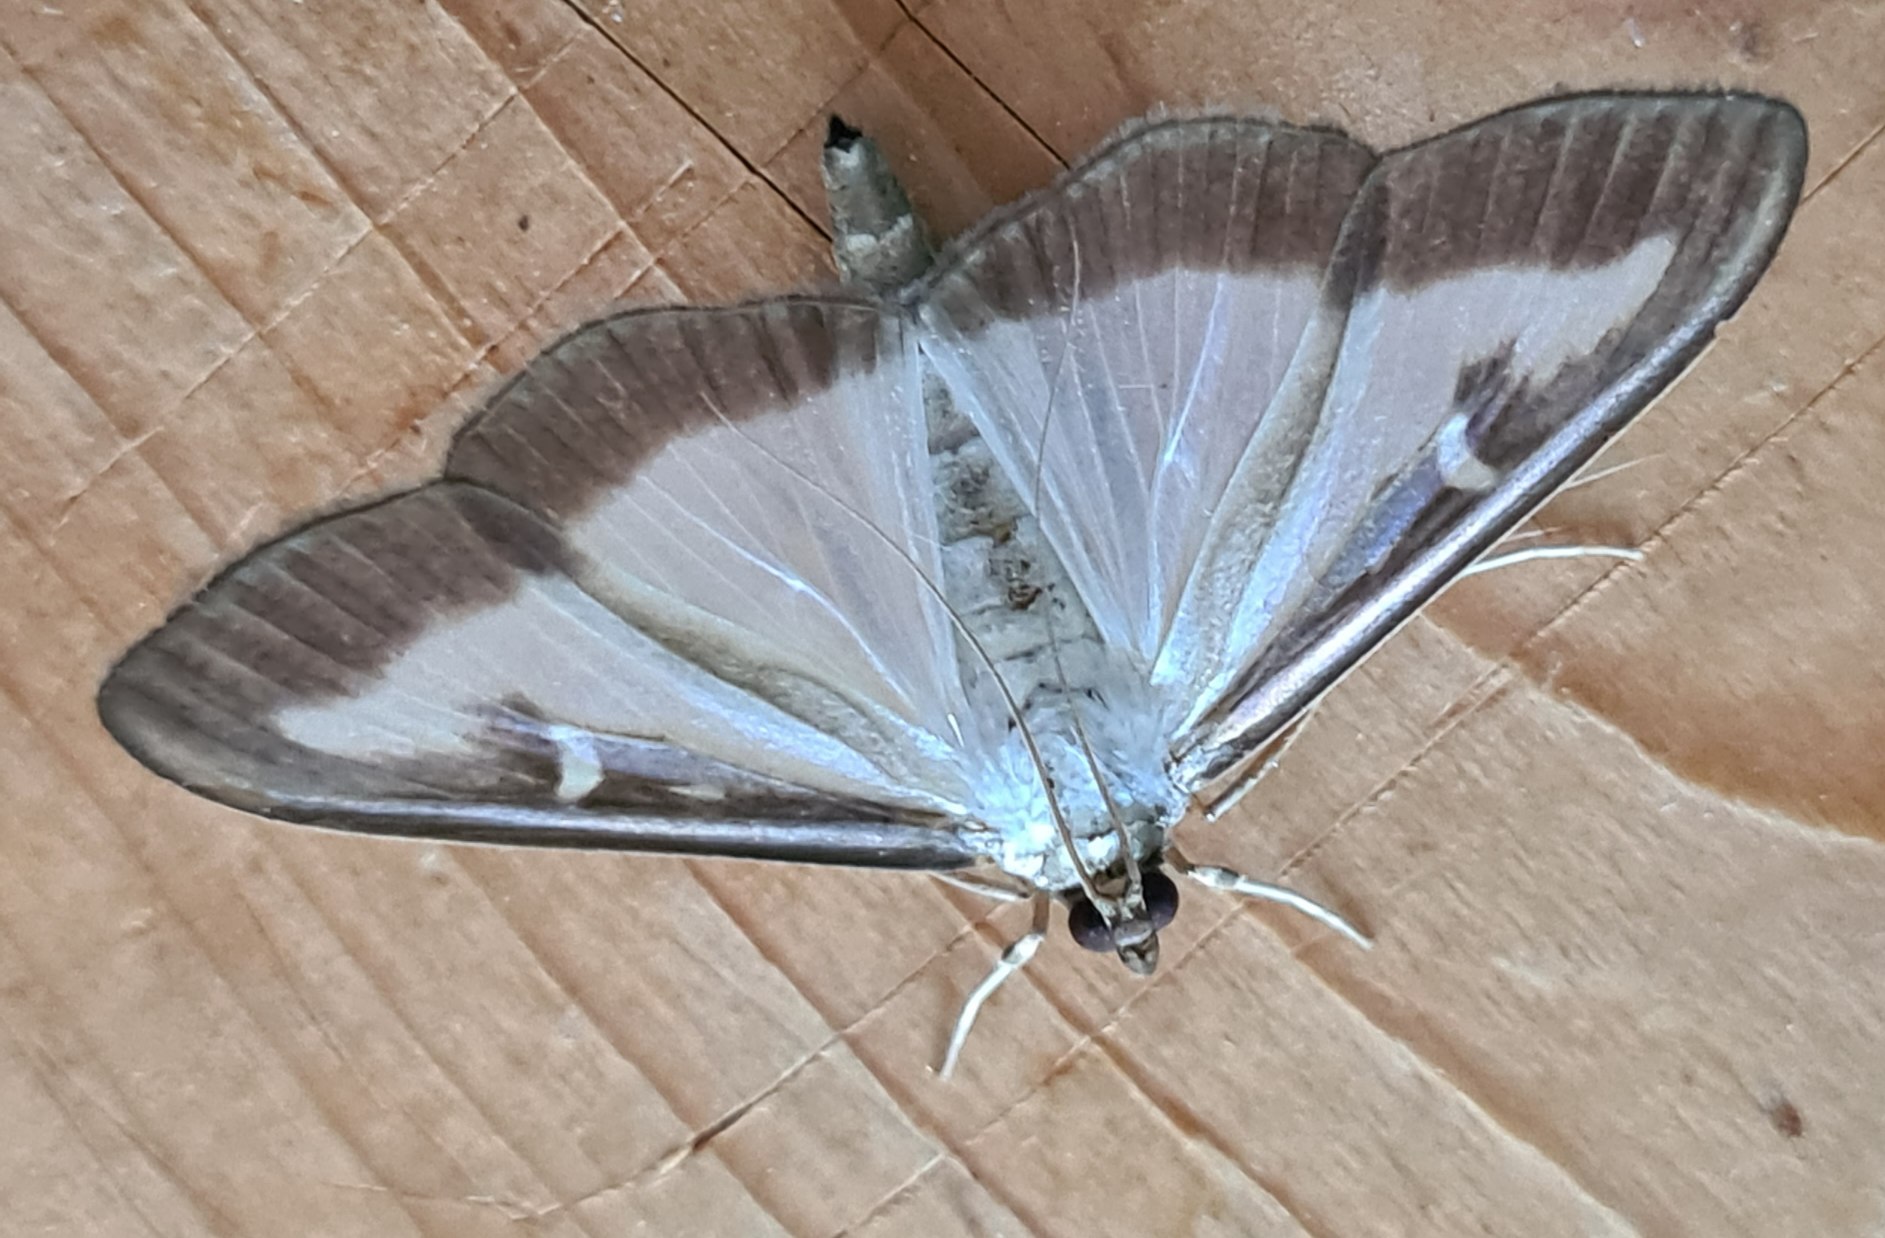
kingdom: Animalia
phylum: Arthropoda
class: Insecta
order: Lepidoptera
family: Crambidae
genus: Cydalima
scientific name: Cydalima perspectalis
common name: Buksbomhalvmøl
